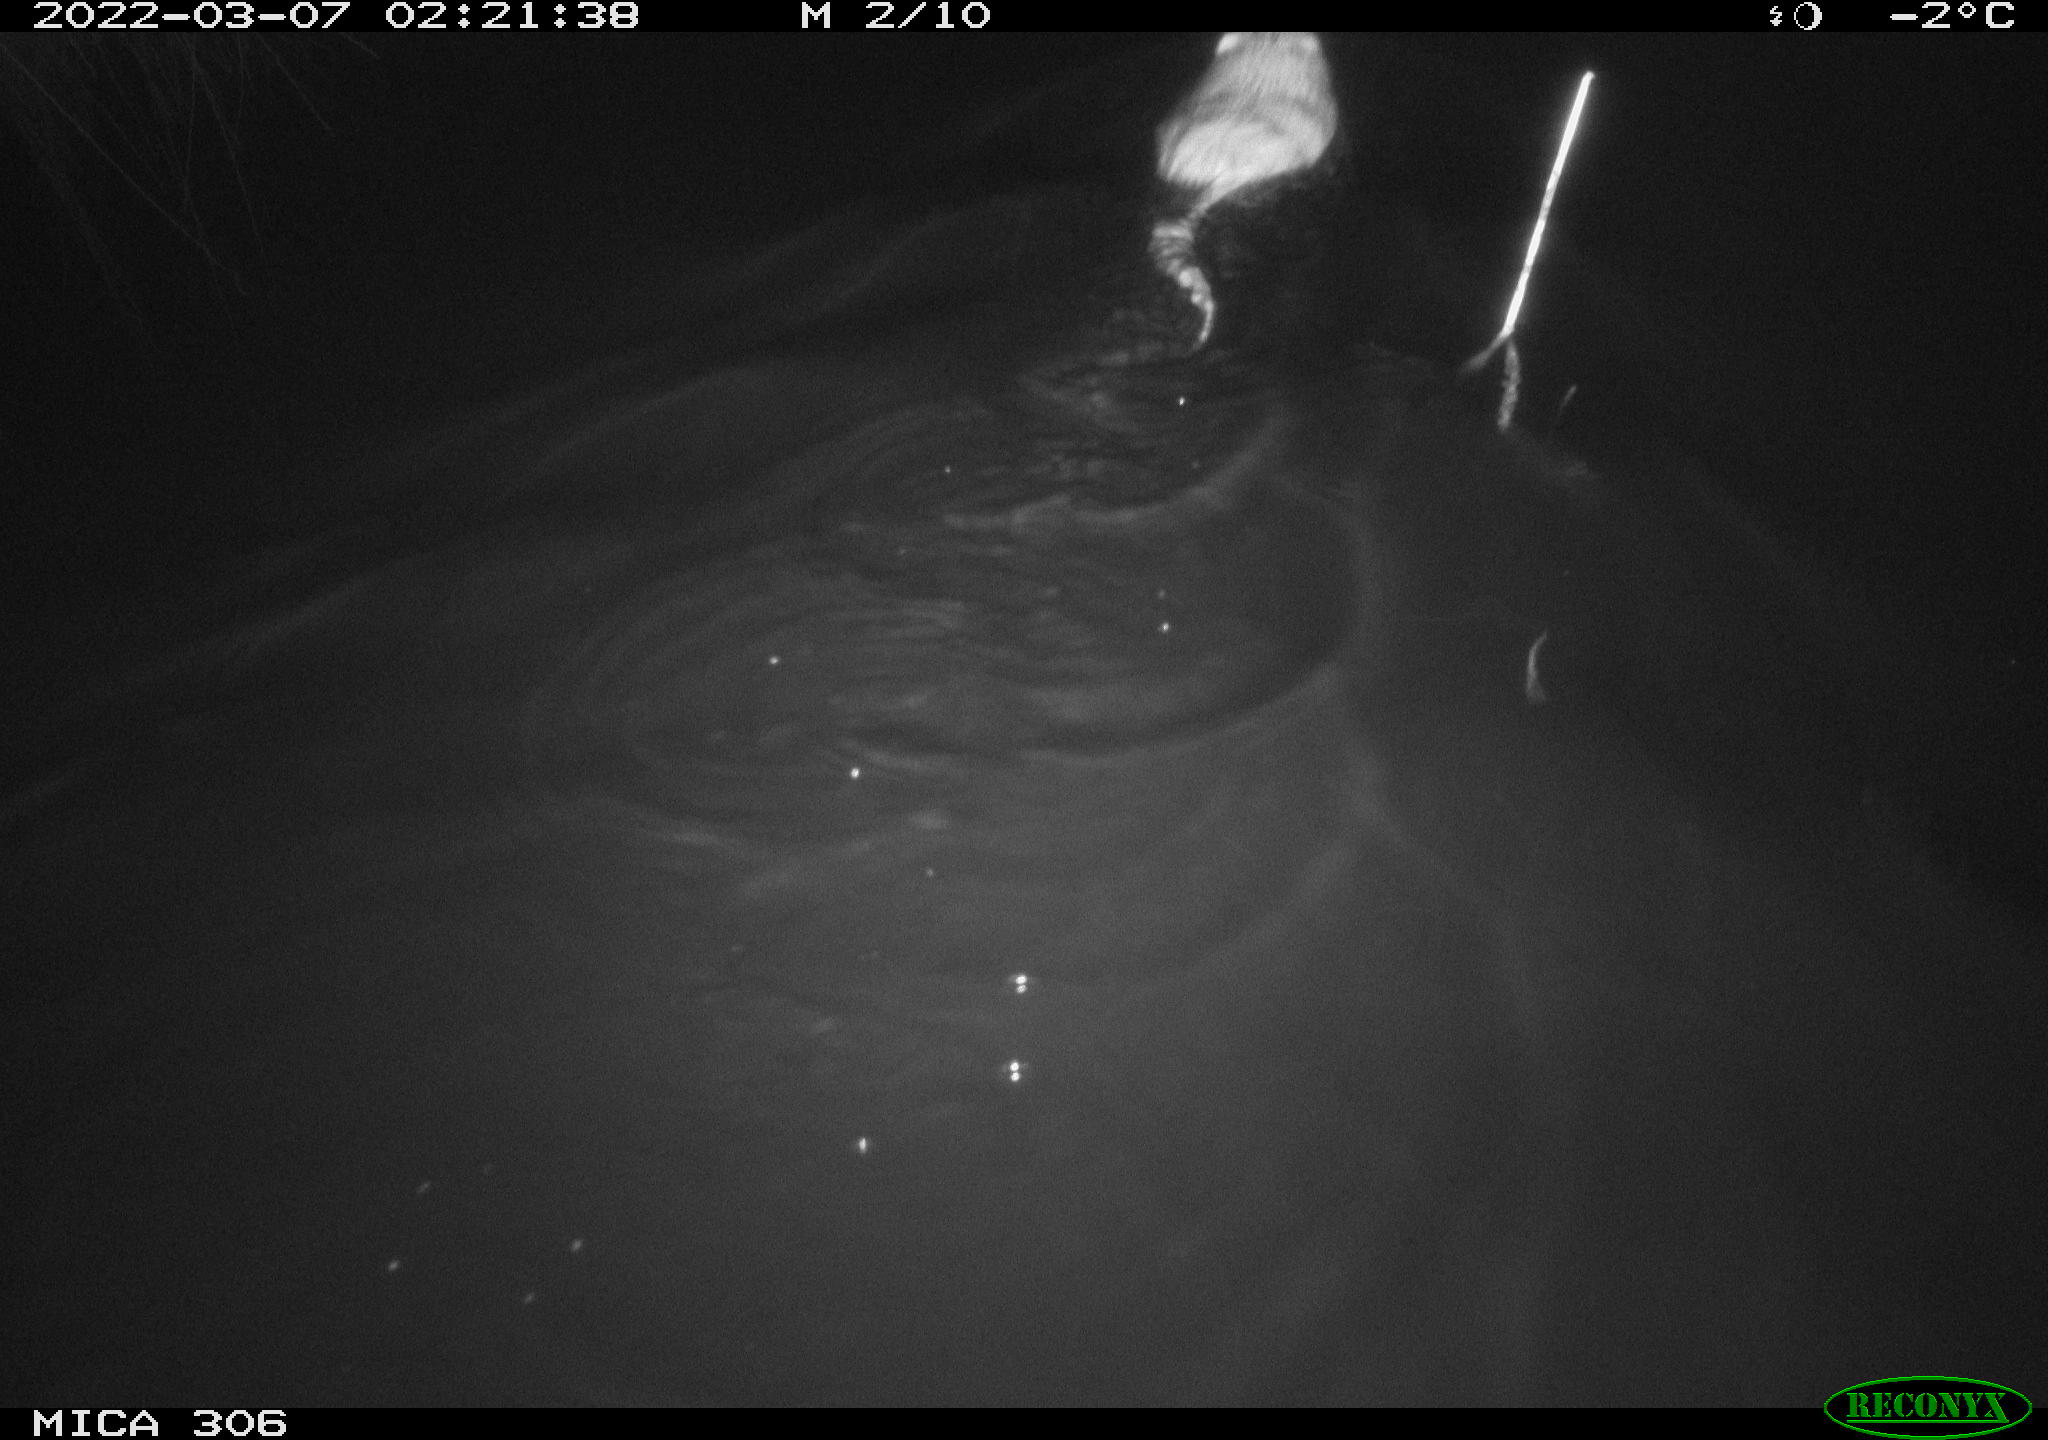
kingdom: Animalia
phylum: Chordata
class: Mammalia
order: Rodentia
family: Cricetidae
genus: Ondatra
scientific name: Ondatra zibethicus
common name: Muskrat
